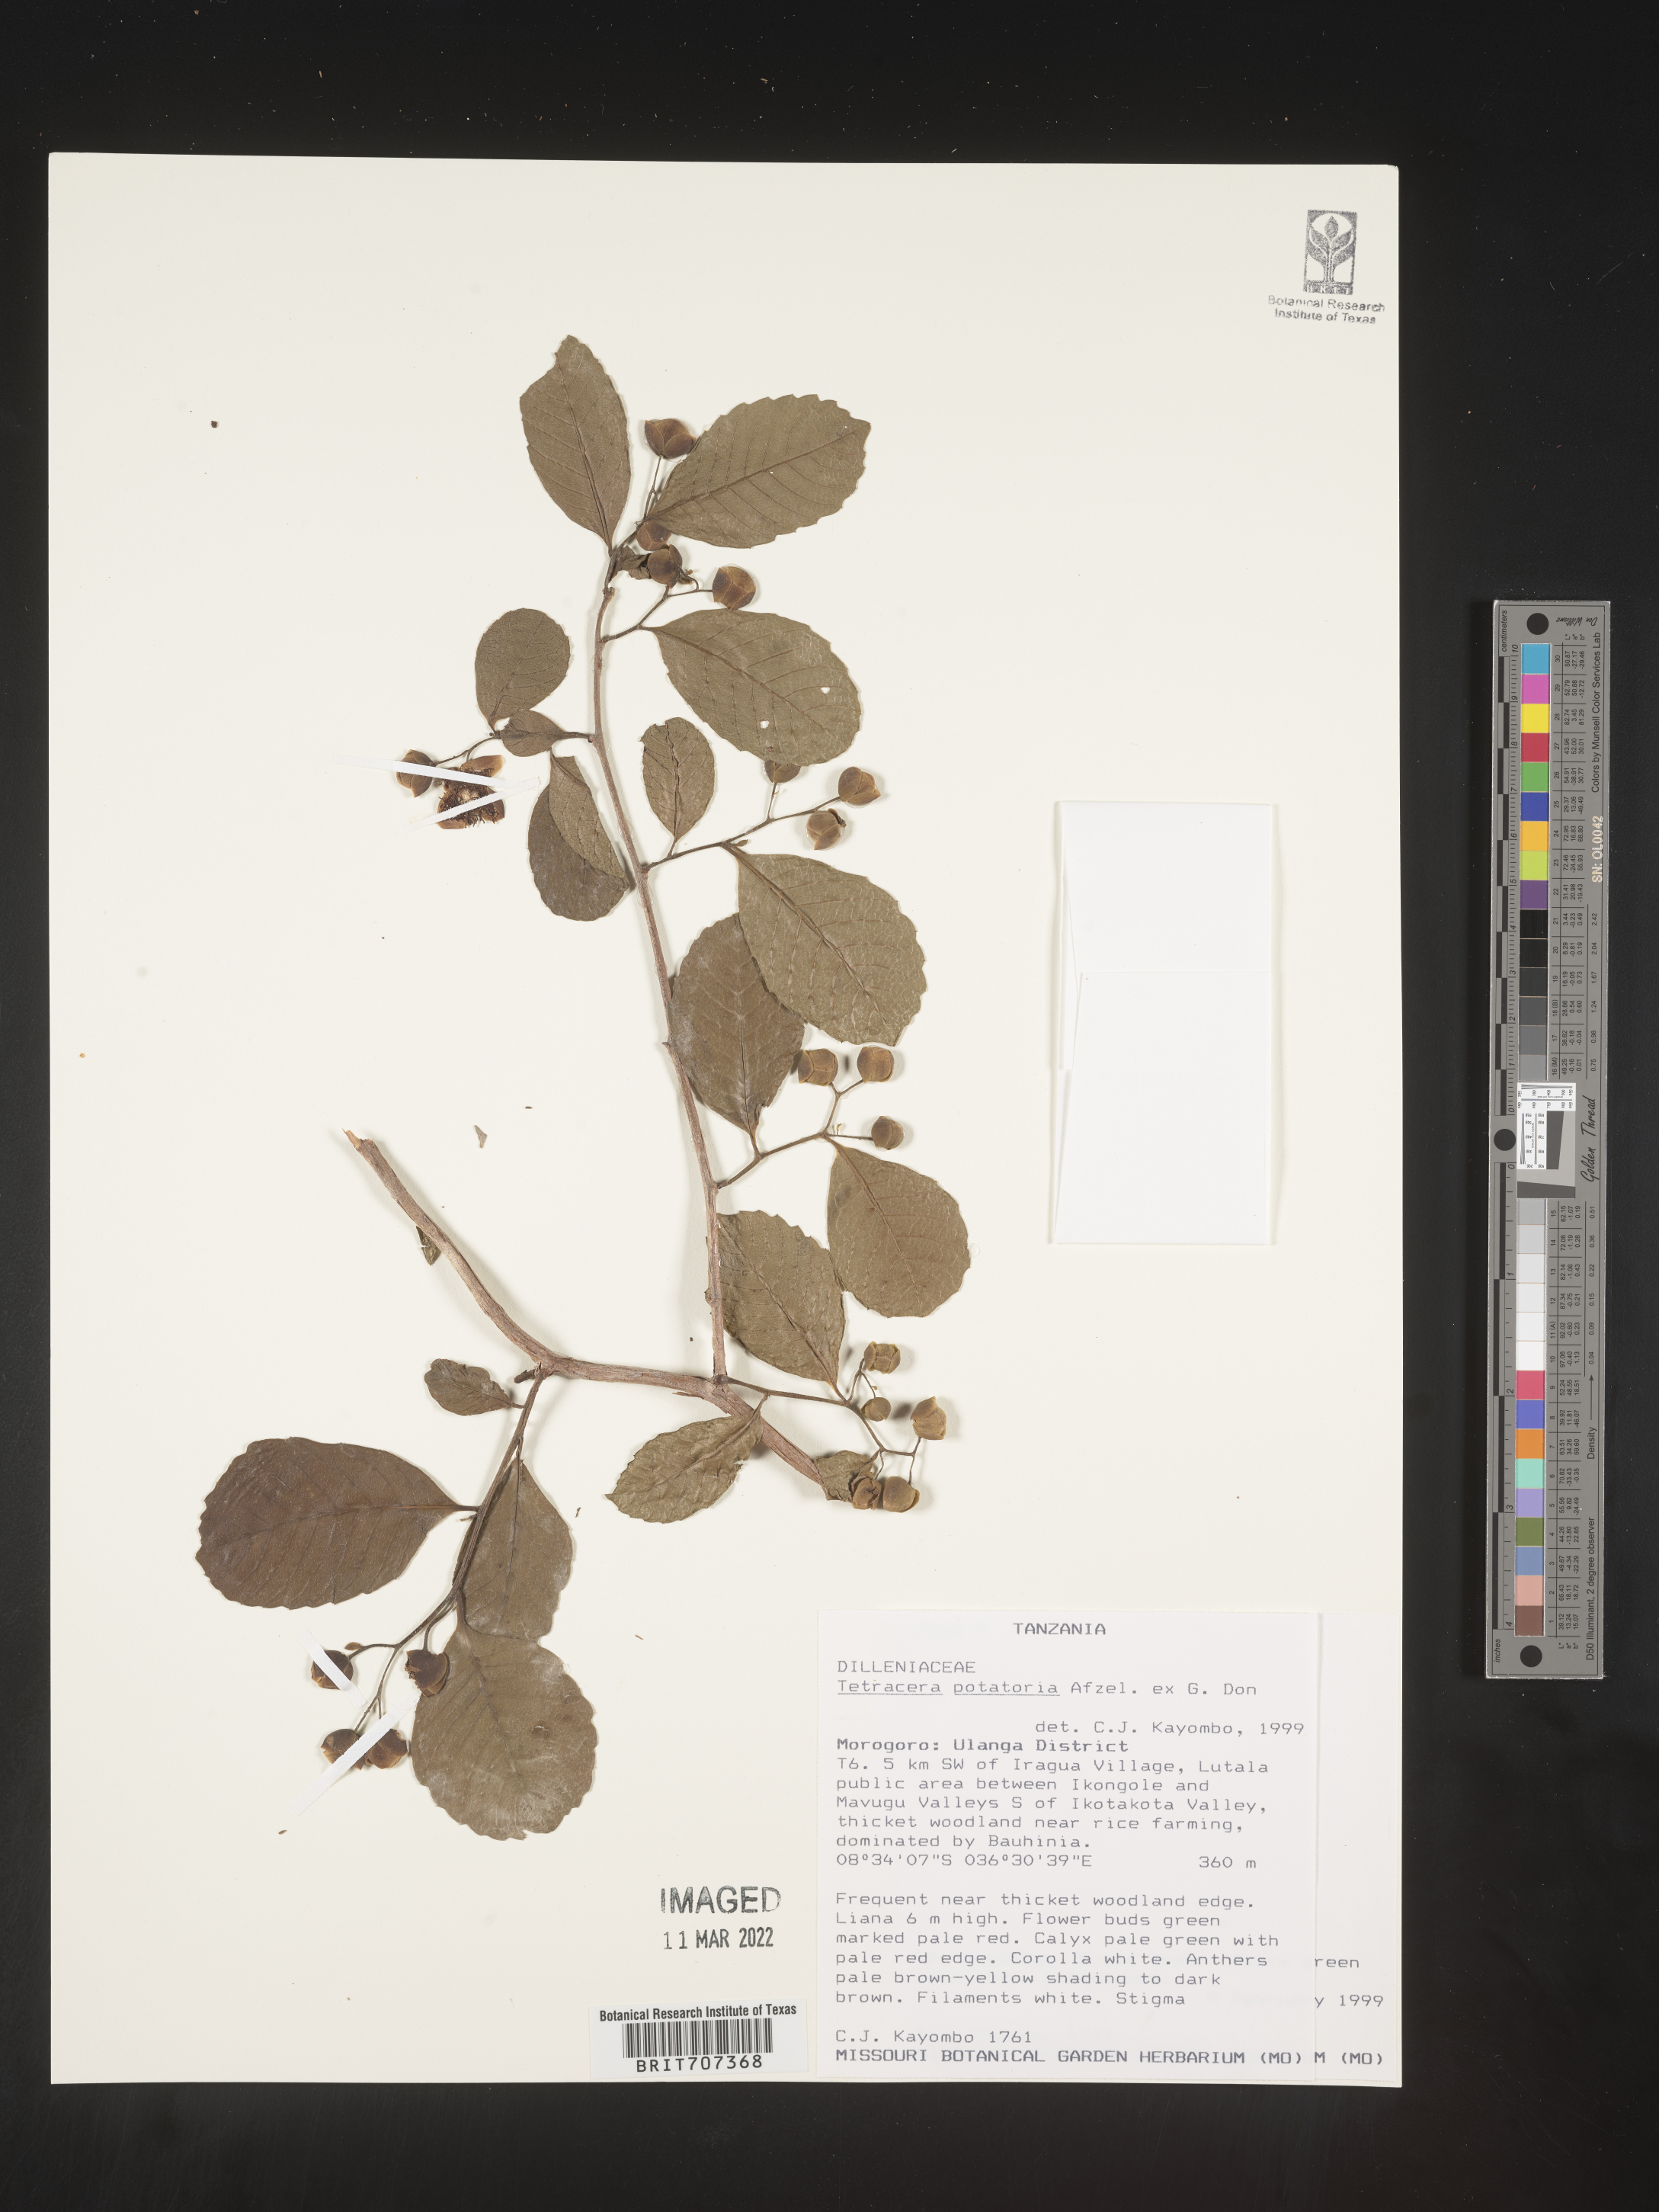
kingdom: Plantae
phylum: Tracheophyta
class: Magnoliopsida
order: Dilleniales
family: Dilleniaceae
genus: Tetracera
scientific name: Tetracera
